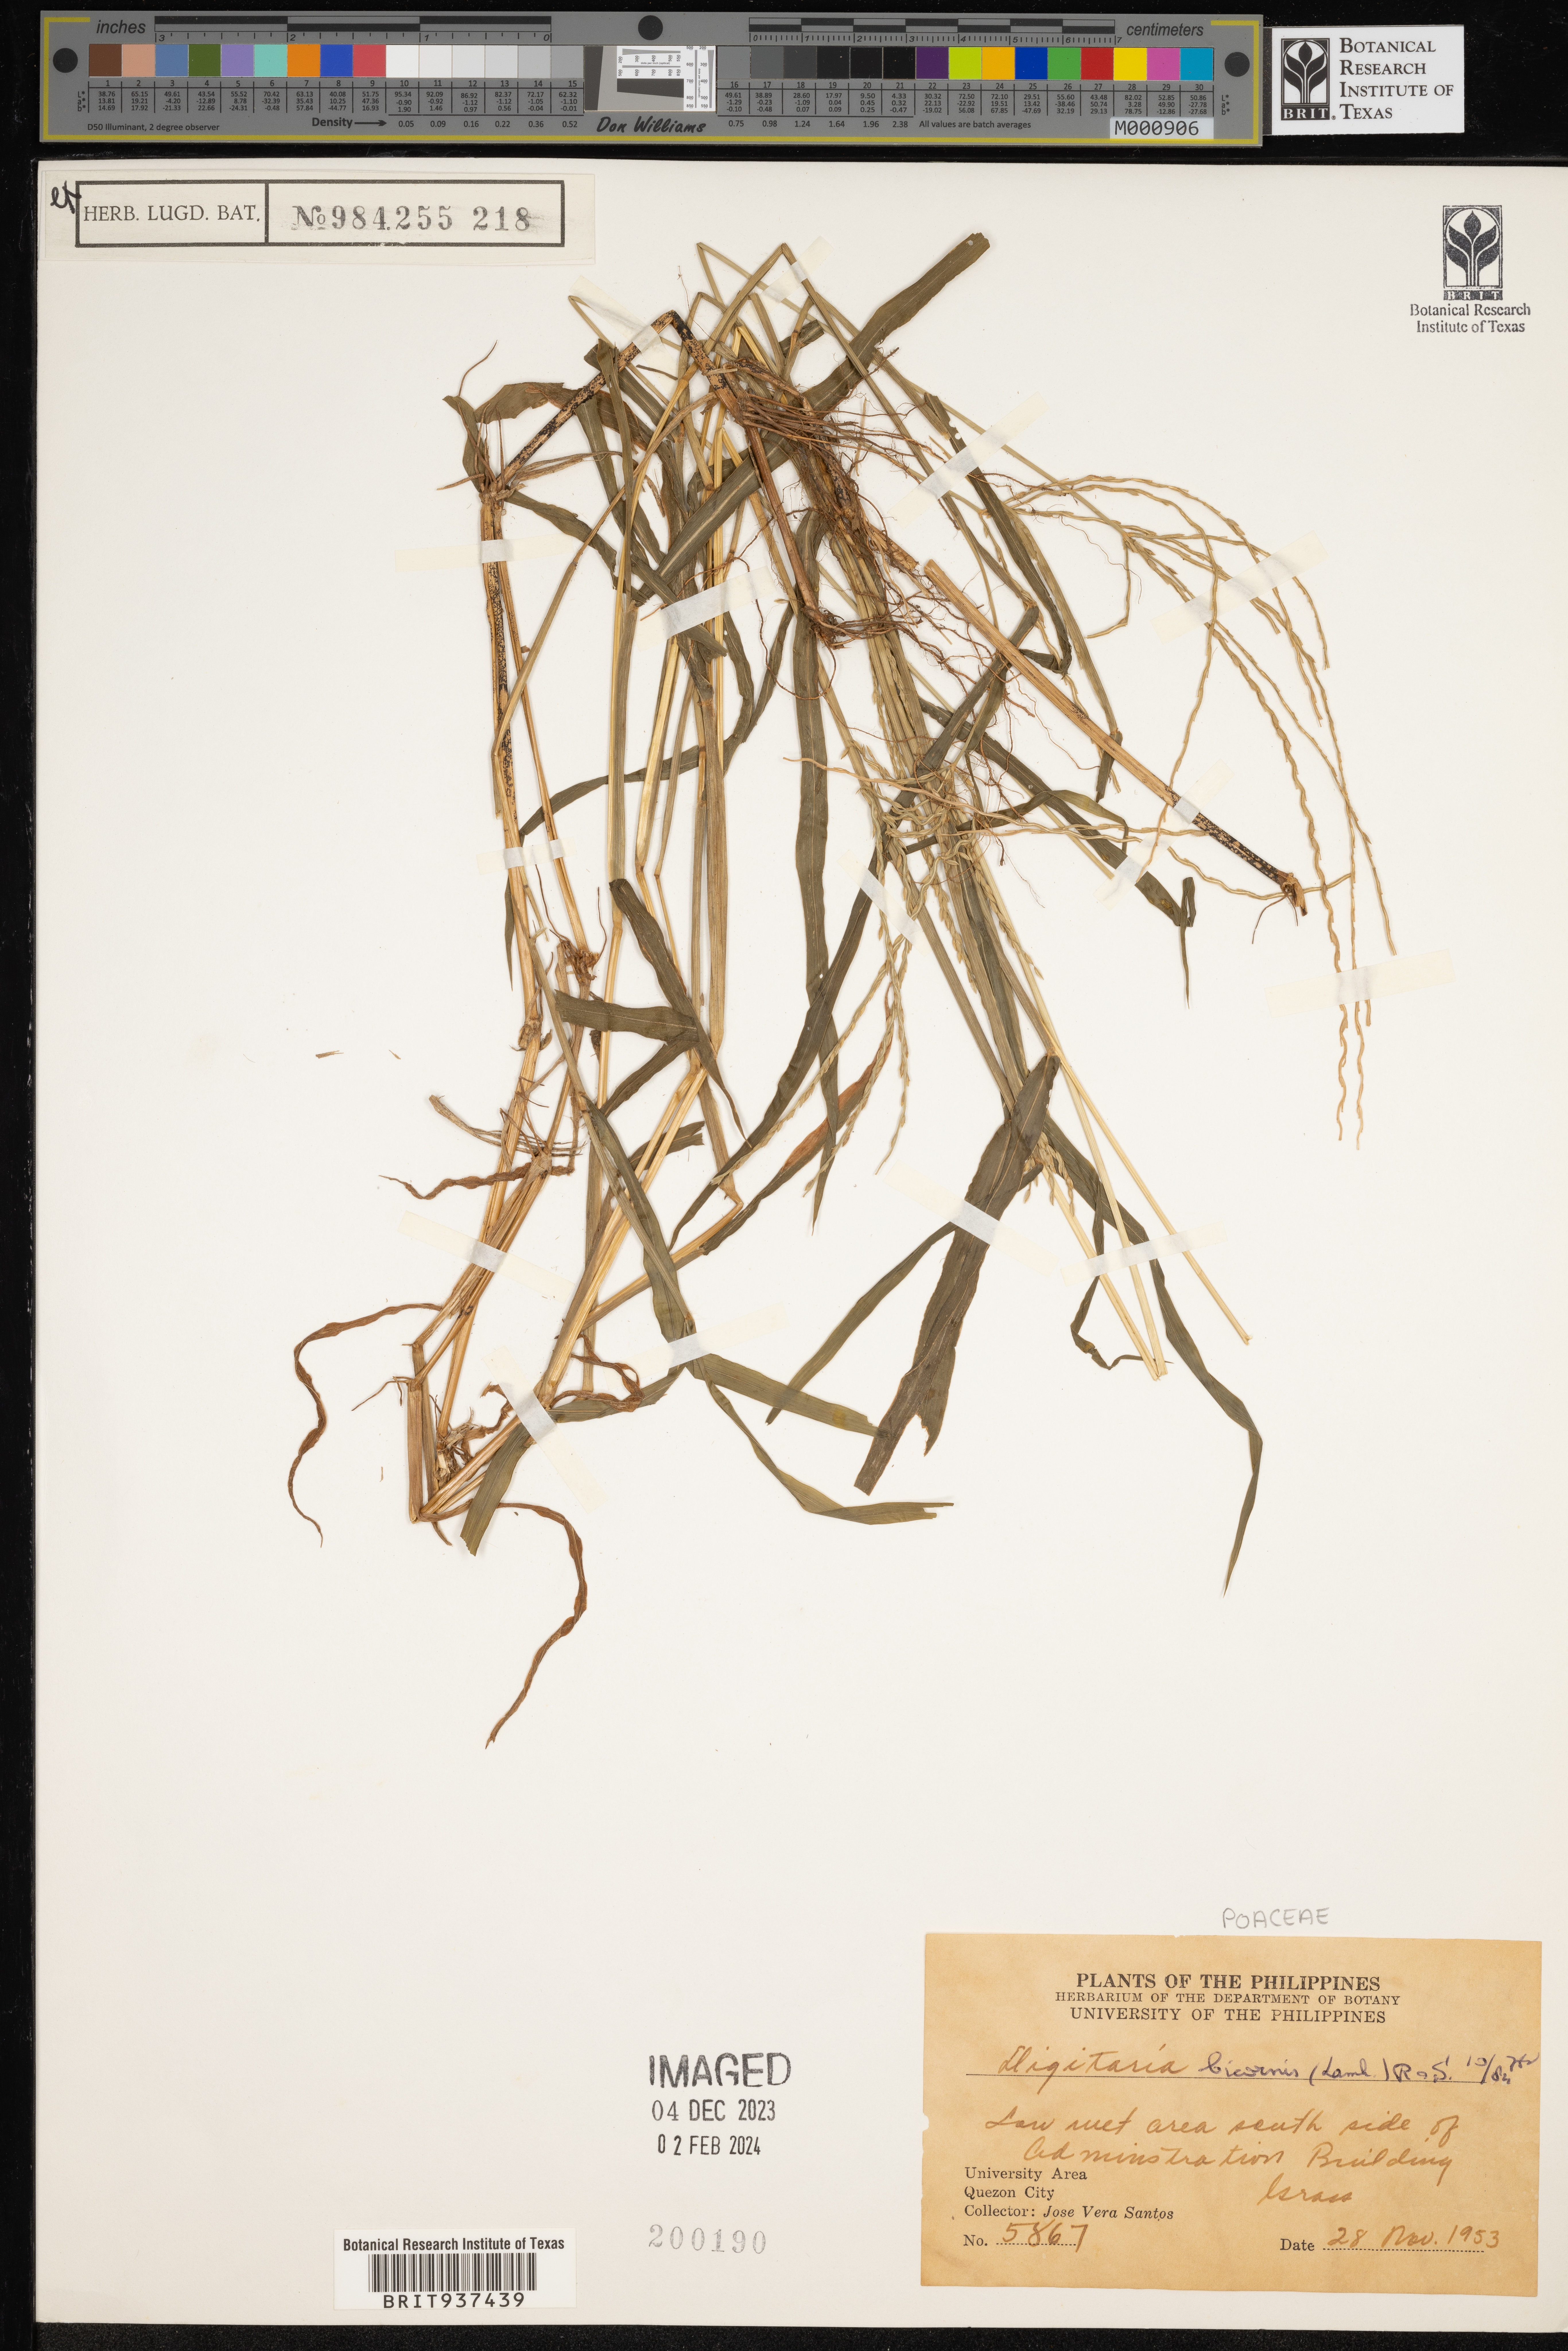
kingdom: Plantae
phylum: Tracheophyta
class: Liliopsida
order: Poales
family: Poaceae
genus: Digitaria
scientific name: Digitaria
